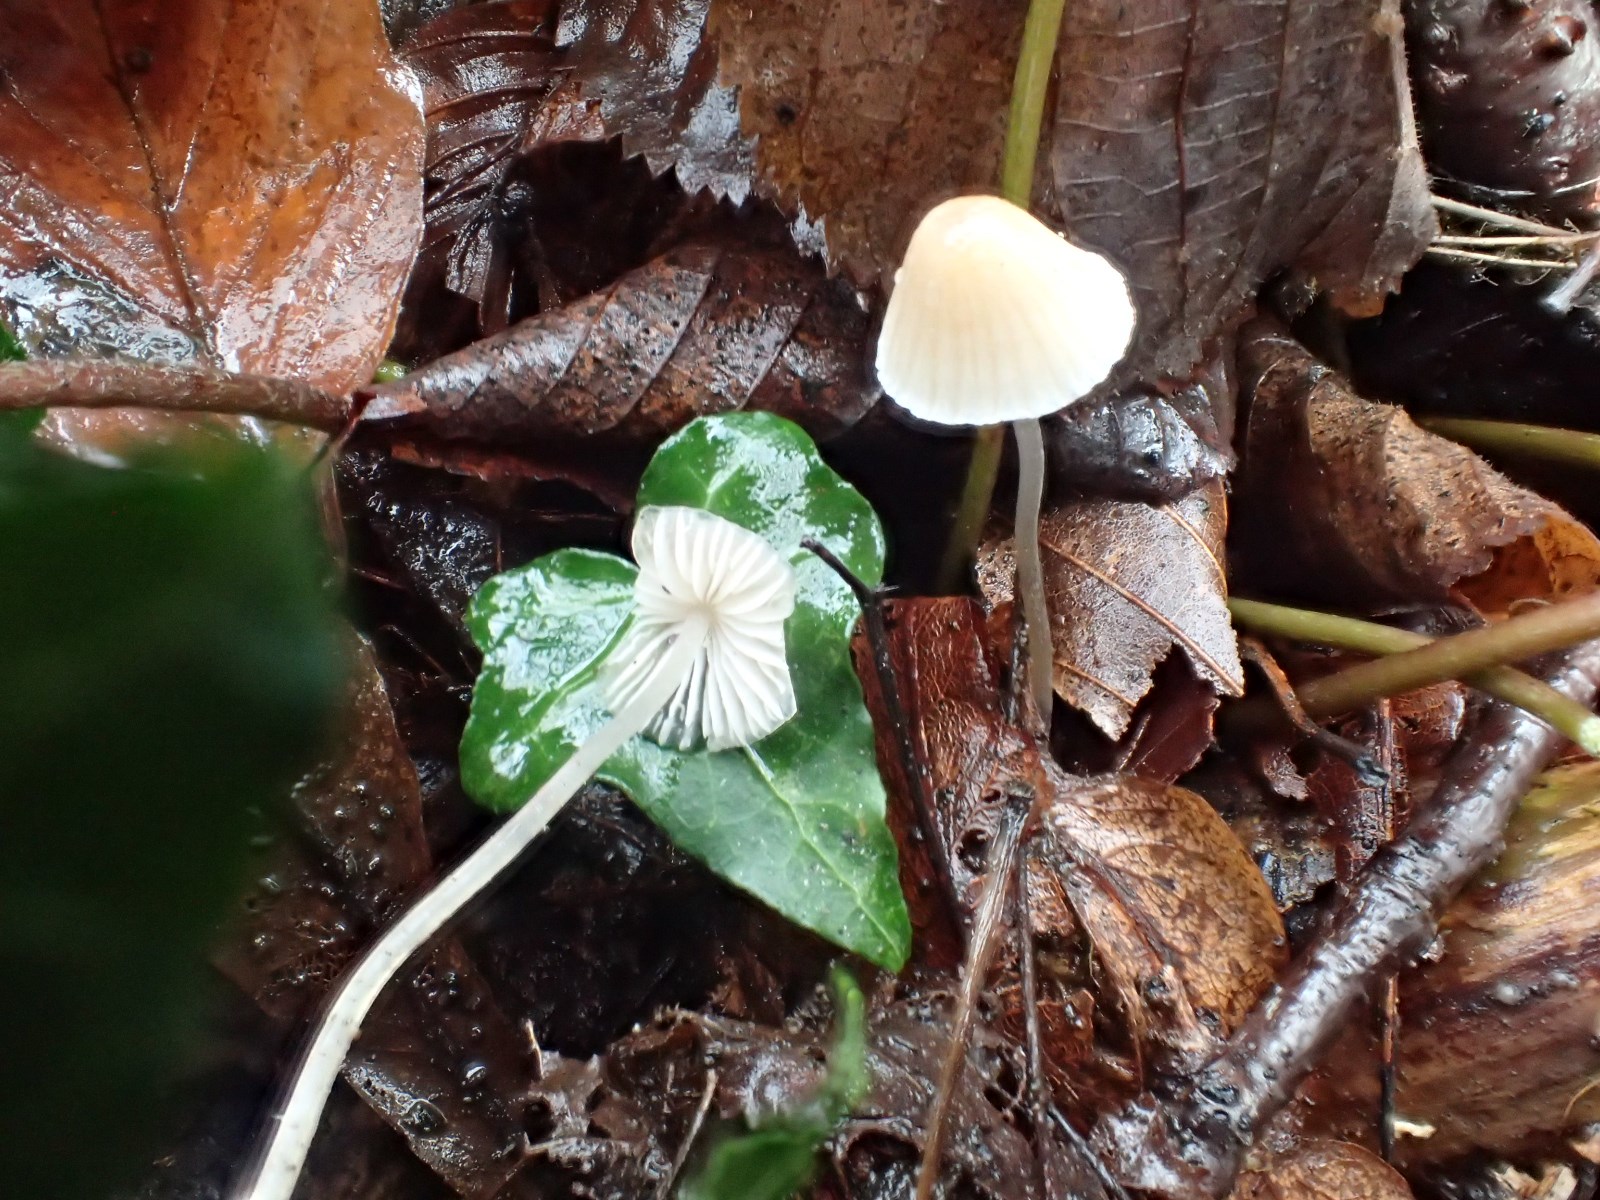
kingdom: Fungi
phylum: Basidiomycota
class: Agaricomycetes
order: Agaricales
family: Mycenaceae
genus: Mycena
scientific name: Mycena
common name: huesvamp
